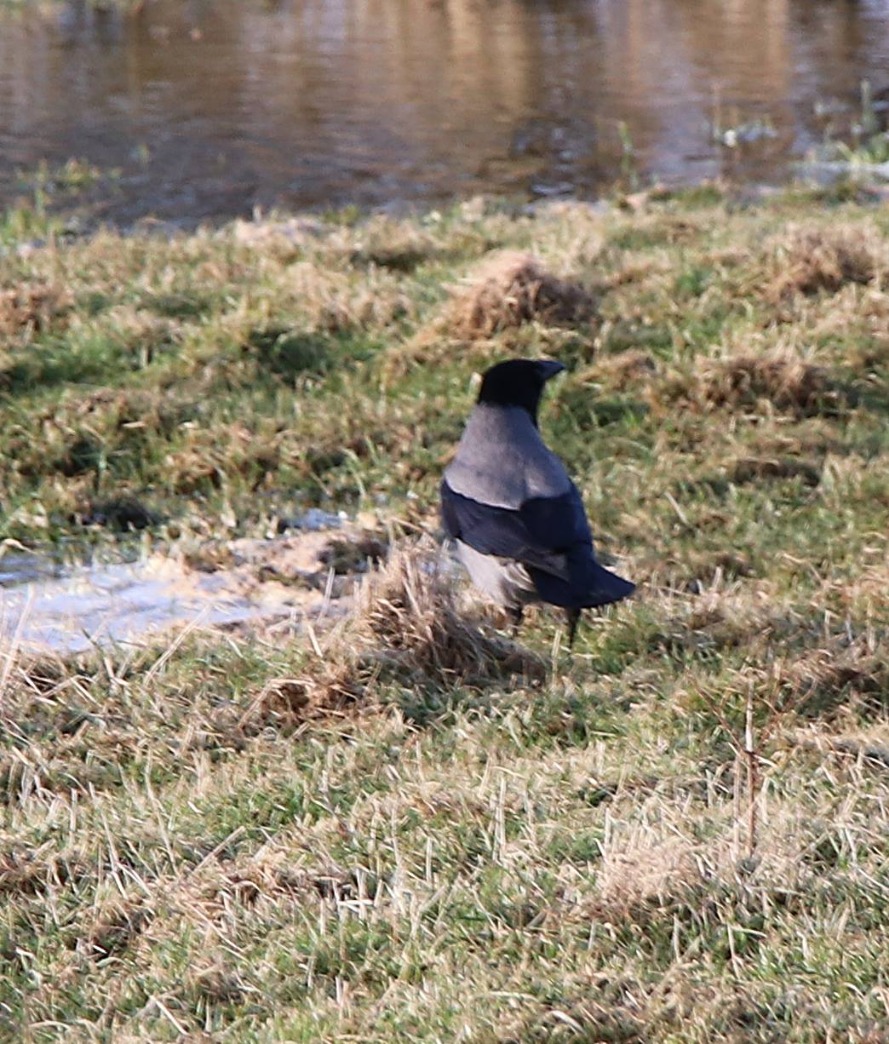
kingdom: Animalia
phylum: Chordata
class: Aves
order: Passeriformes
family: Corvidae
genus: Corvus
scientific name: Corvus cornix
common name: Gråkrage
